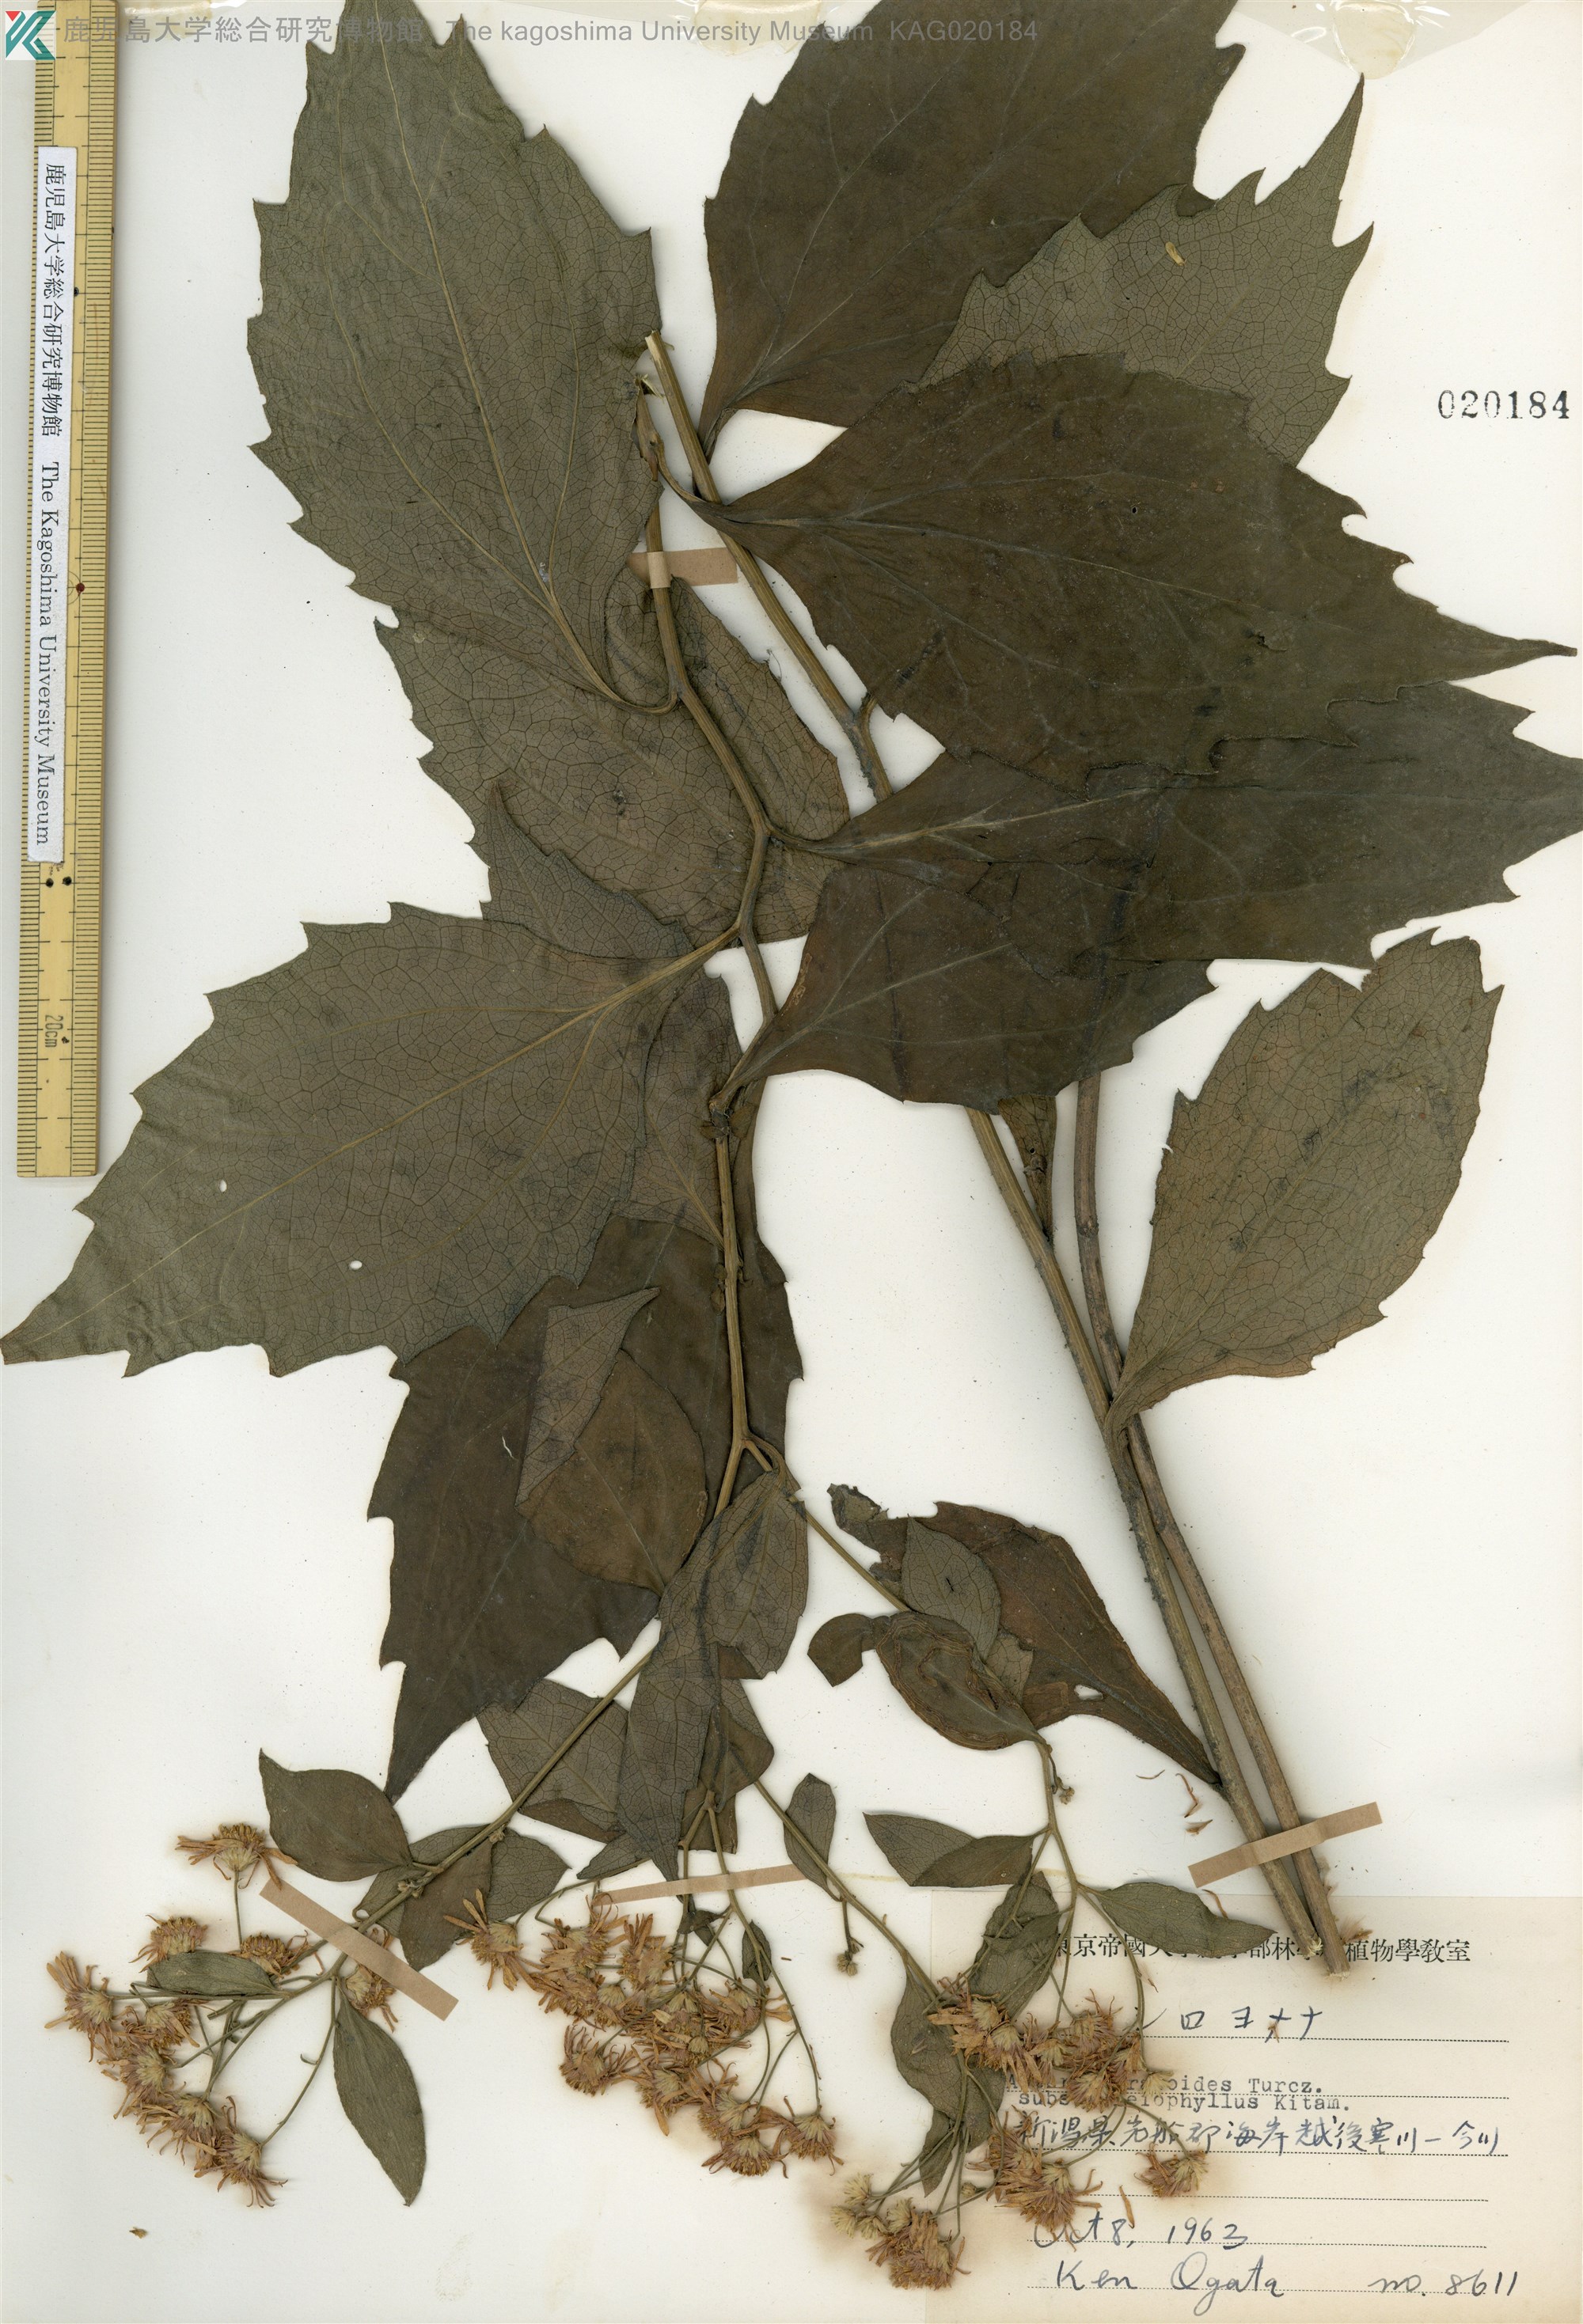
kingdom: Plantae
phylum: Tracheophyta
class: Magnoliopsida
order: Asterales
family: Asteraceae
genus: Aster
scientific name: Aster ageratoides
